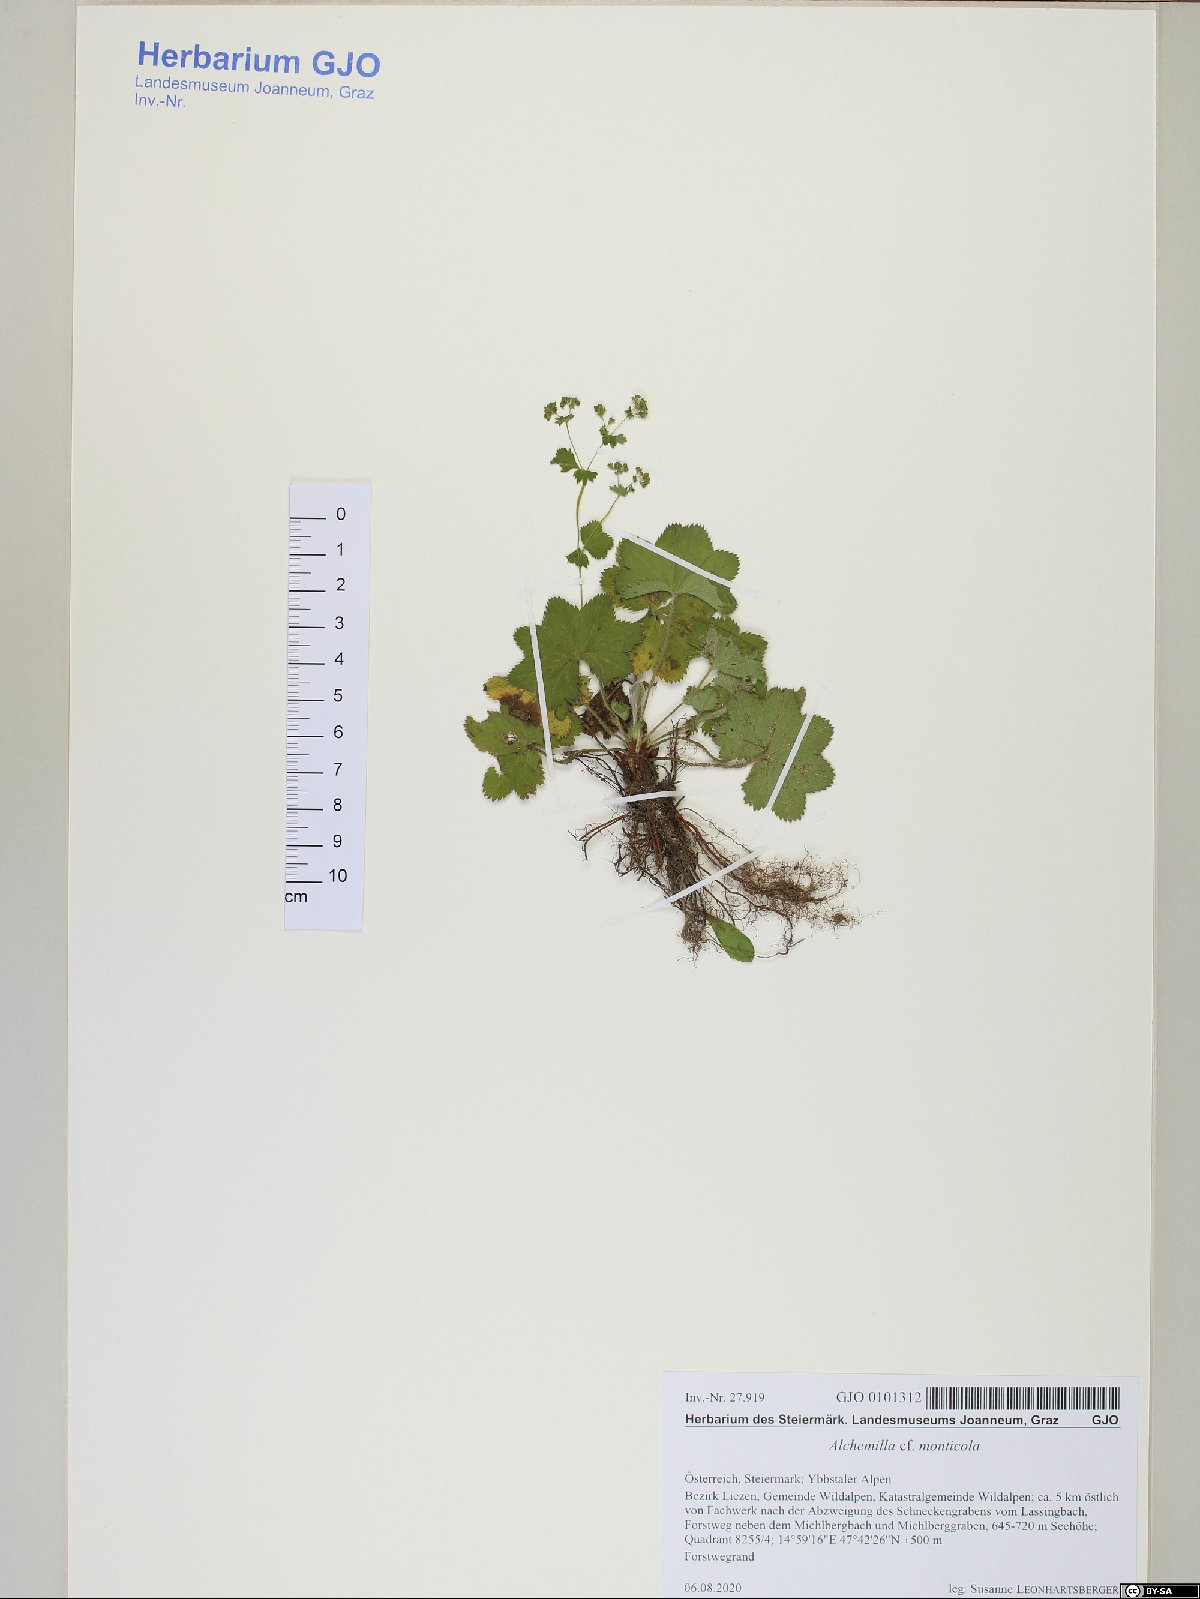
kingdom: Plantae
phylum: Tracheophyta
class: Magnoliopsida
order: Rosales
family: Rosaceae
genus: Alchemilla
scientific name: Alchemilla monticola
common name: Hairy lady's mantle
